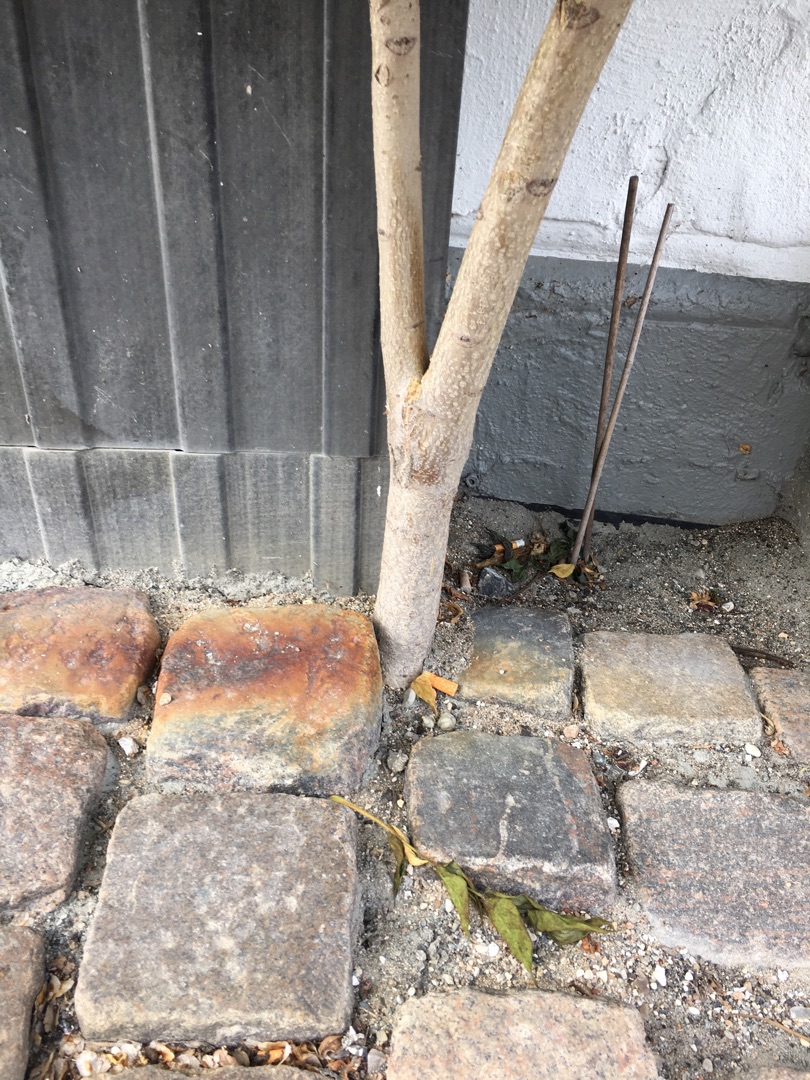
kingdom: Plantae
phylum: Tracheophyta
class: Magnoliopsida
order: Sapindales
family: Simaroubaceae
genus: Ailanthus
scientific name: Ailanthus altissima
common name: Skyrækker
